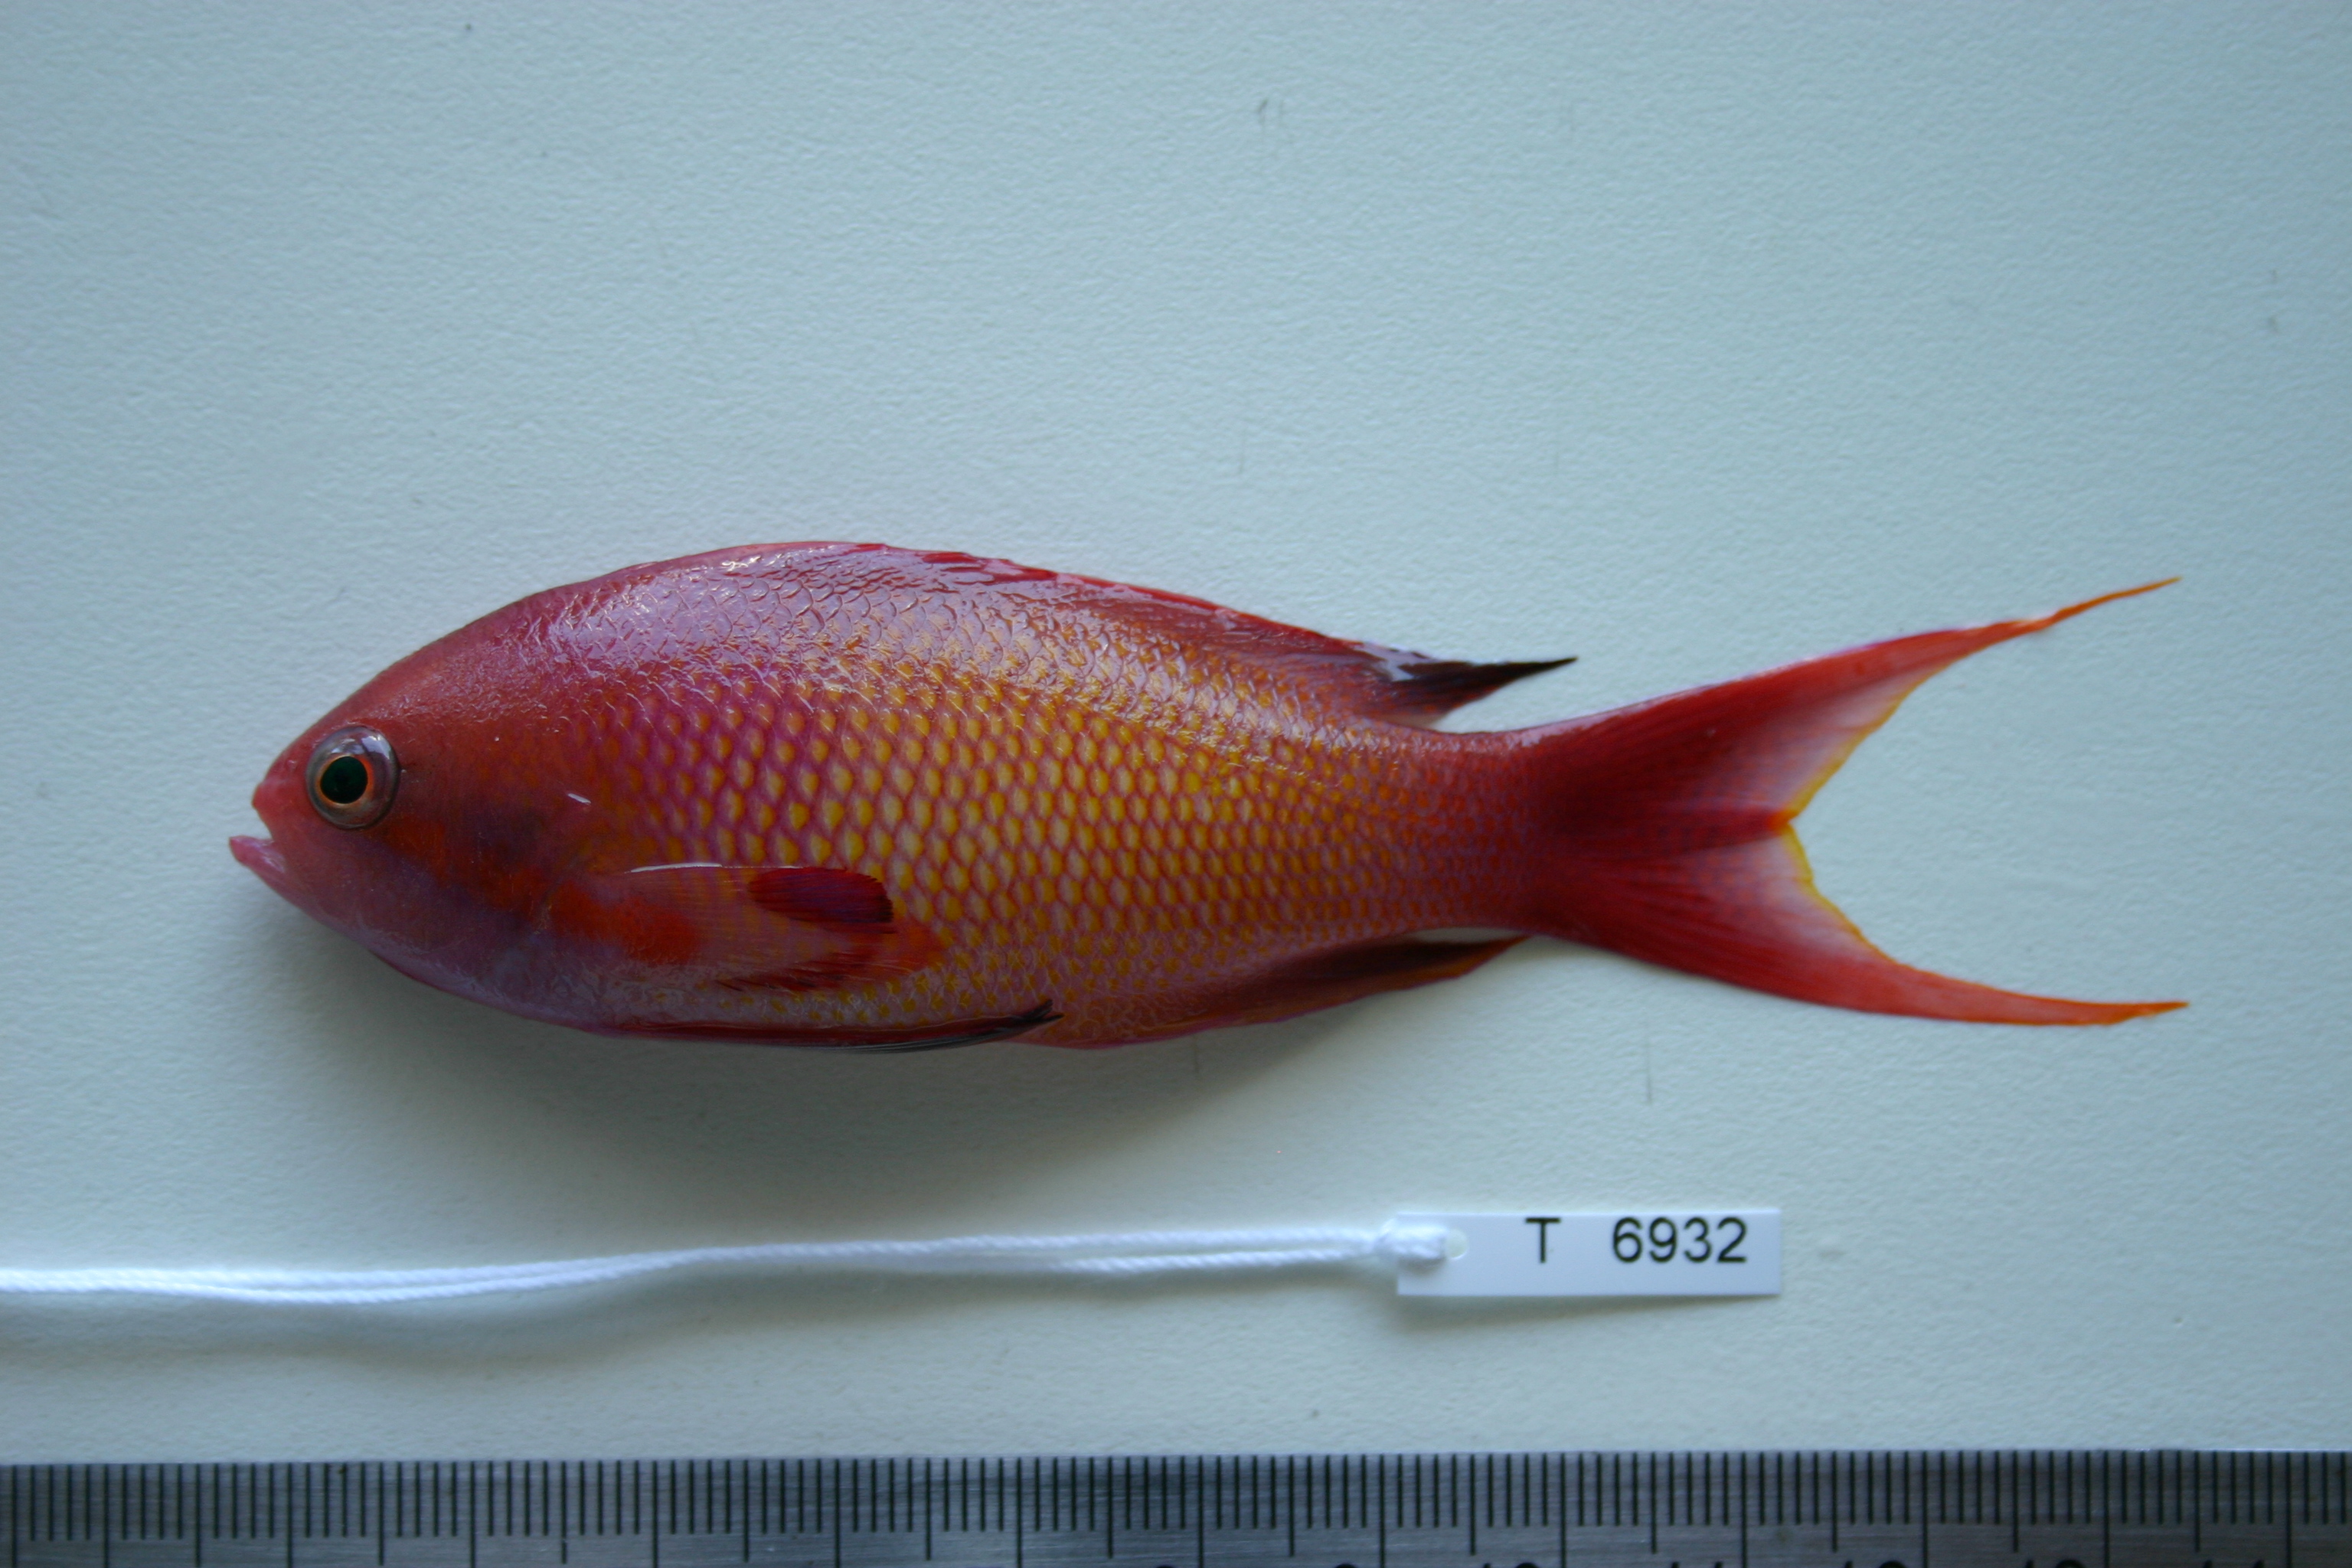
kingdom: Animalia
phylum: Chordata
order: Perciformes
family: Serranidae
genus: Pseudanthias
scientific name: Pseudanthias squamipinnis
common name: Scalefin anthias
